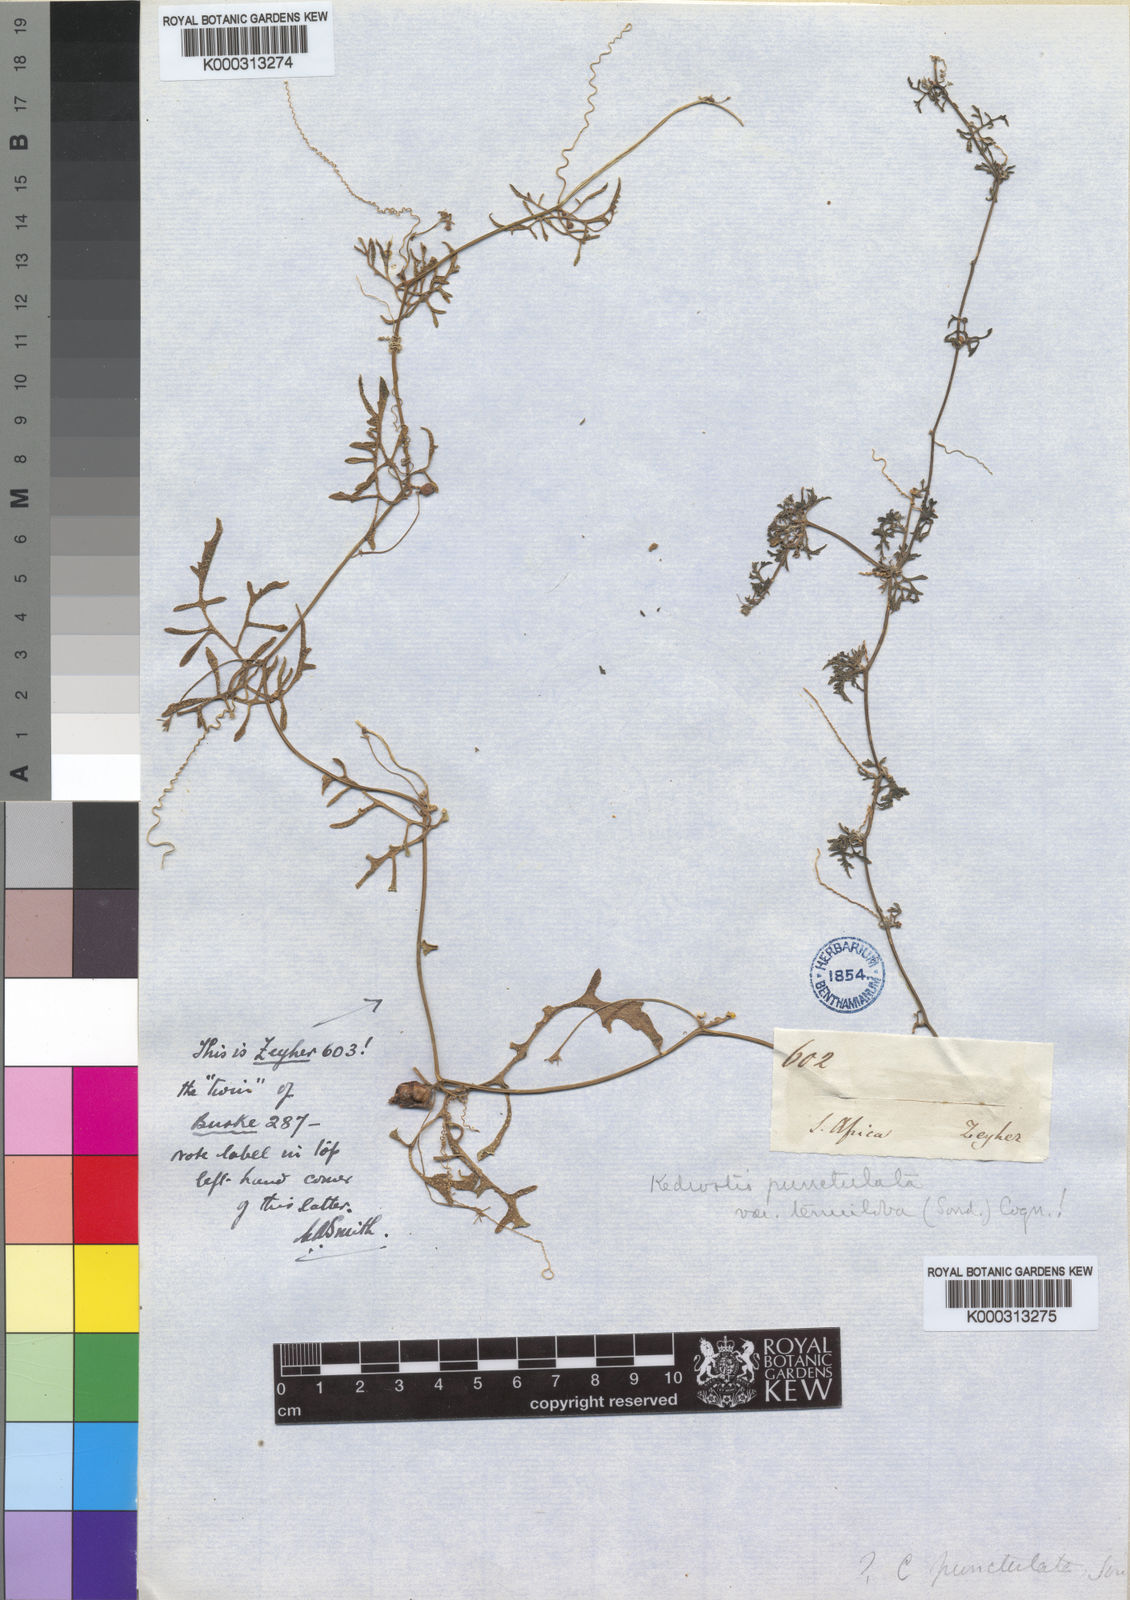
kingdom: Plantae
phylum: Tracheophyta
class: Magnoliopsida
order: Cucurbitales
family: Cucurbitaceae
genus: Kedrostis
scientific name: Kedrostis africana
